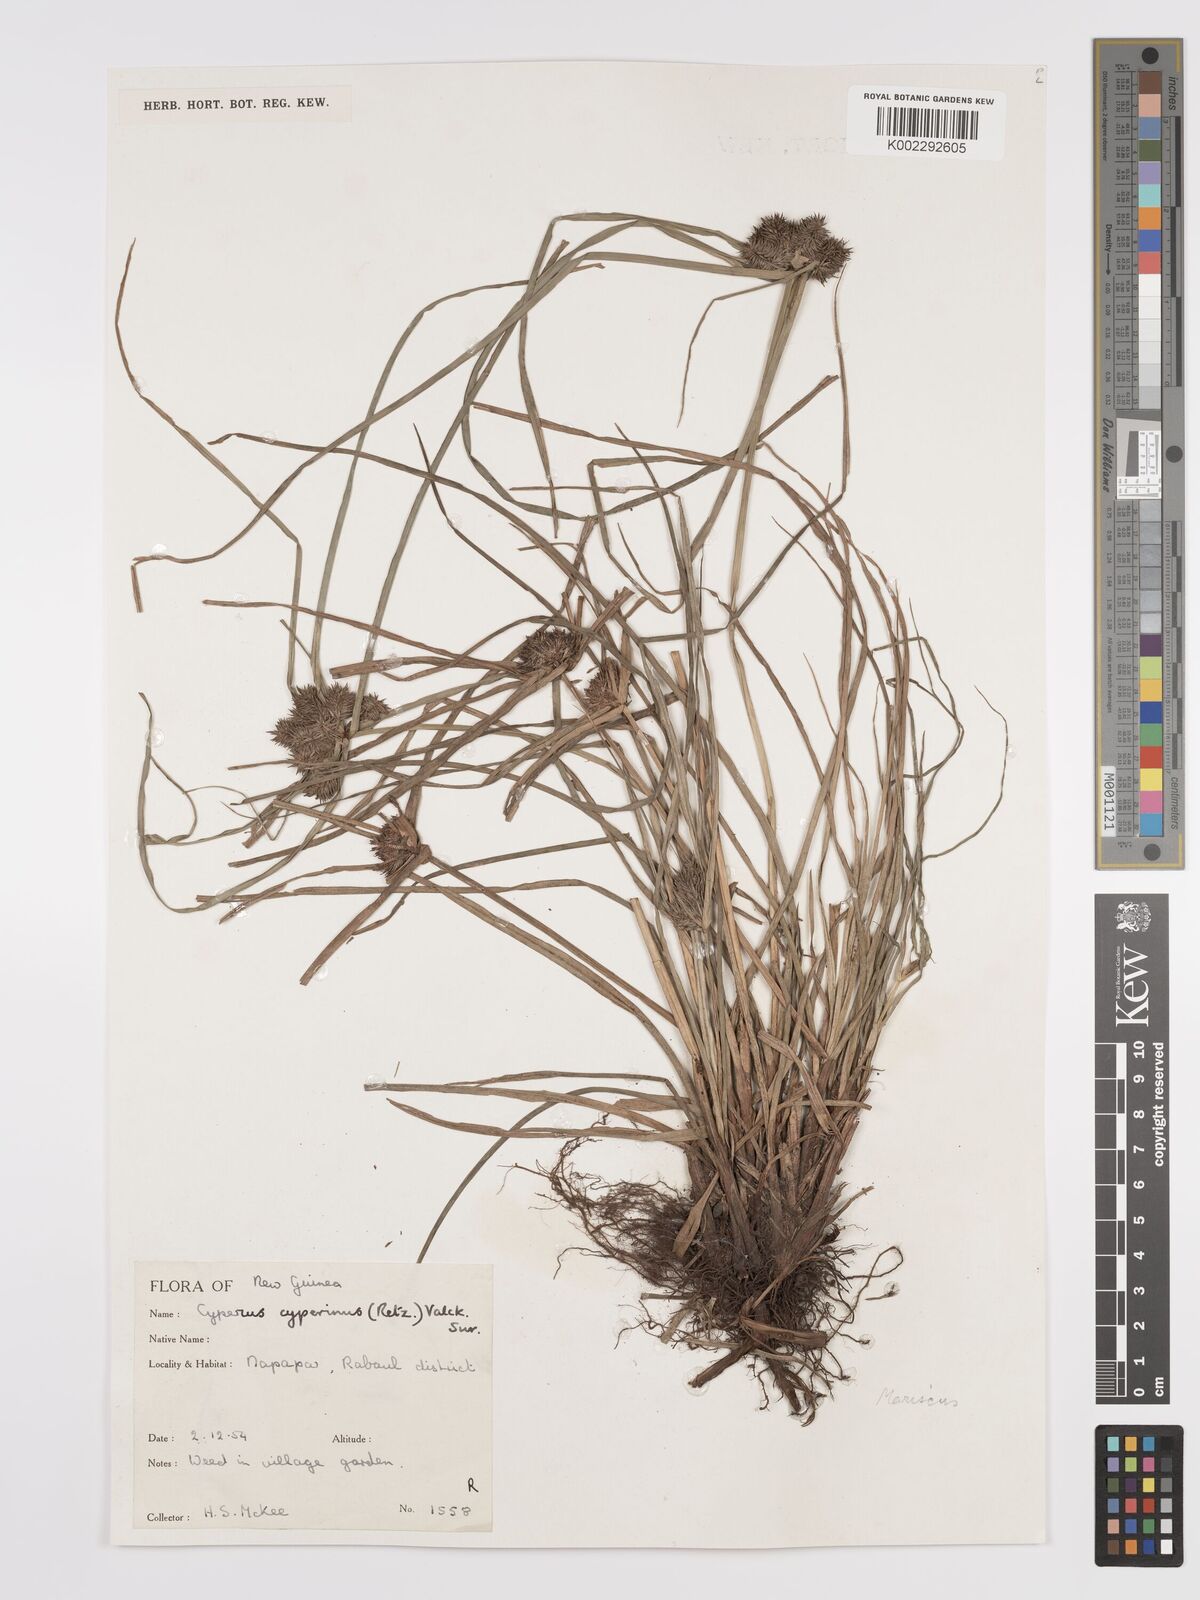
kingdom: Plantae
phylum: Tracheophyta
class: Liliopsida
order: Poales
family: Cyperaceae
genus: Cyperus
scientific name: Cyperus cyperinus
